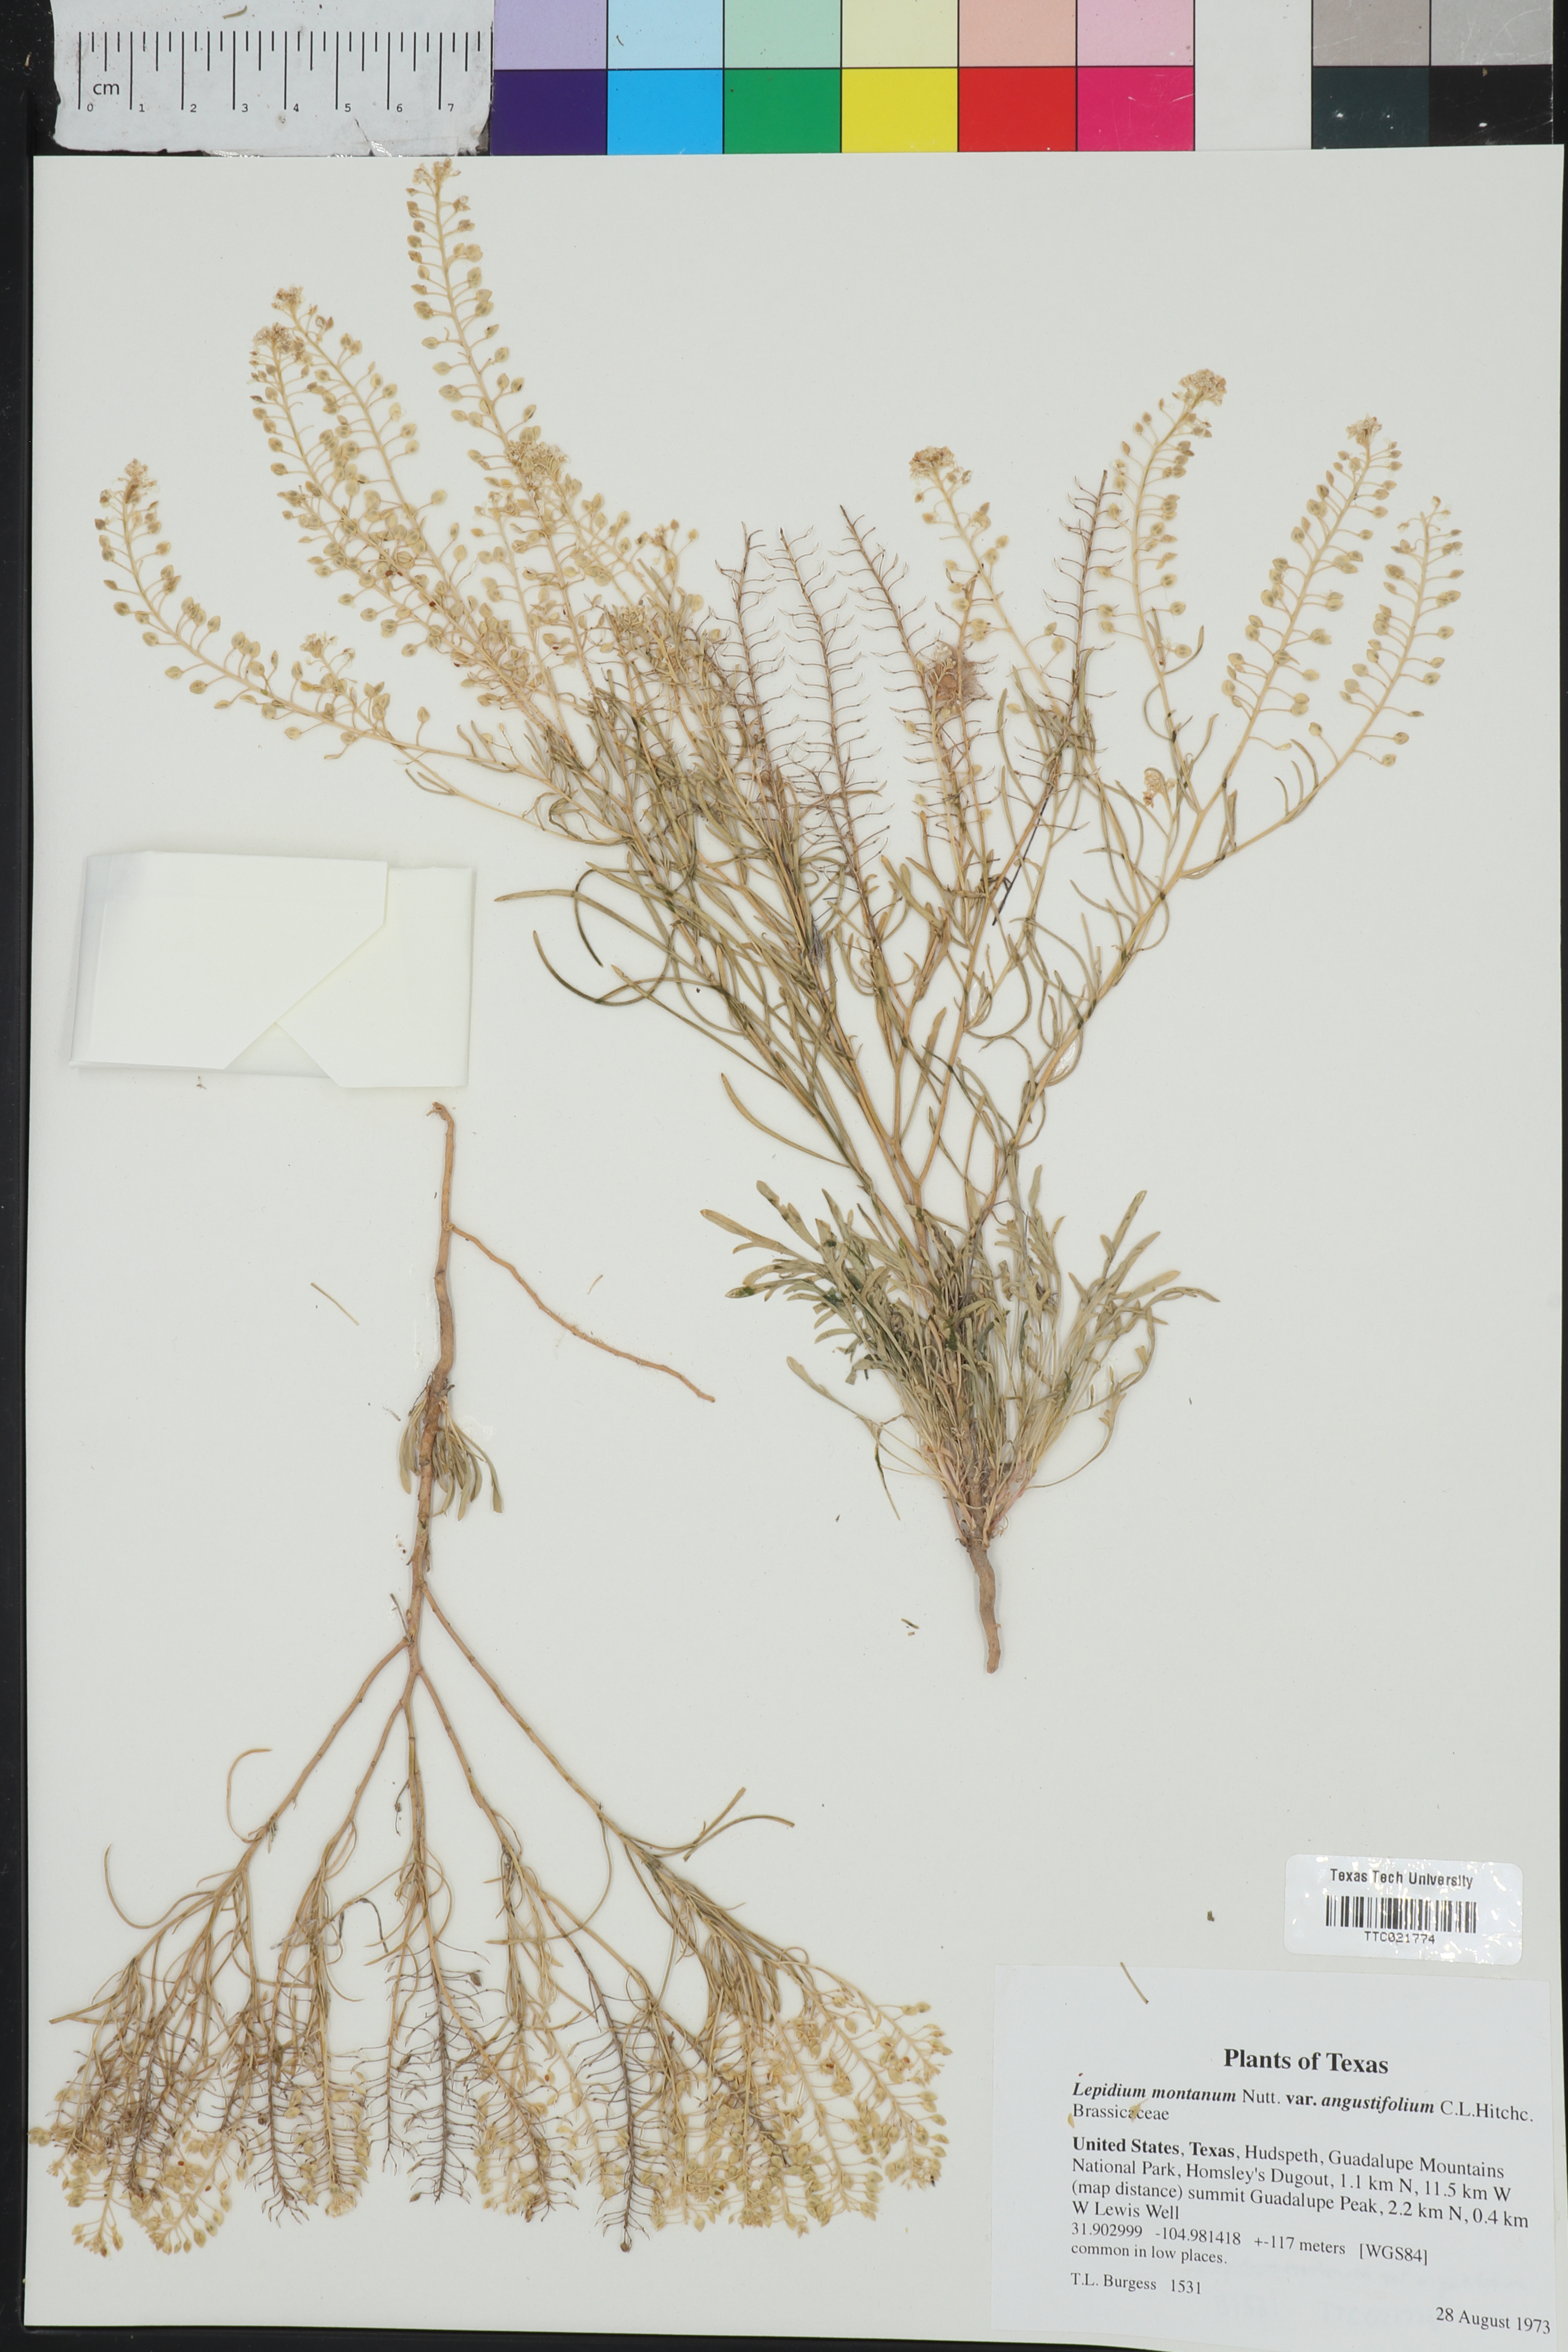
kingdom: Plantae
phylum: Tracheophyta
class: Magnoliopsida
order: Brassicales
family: Brassicaceae
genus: Lepidium
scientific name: Lepidium alyssoides
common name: Mesa pepperweed
